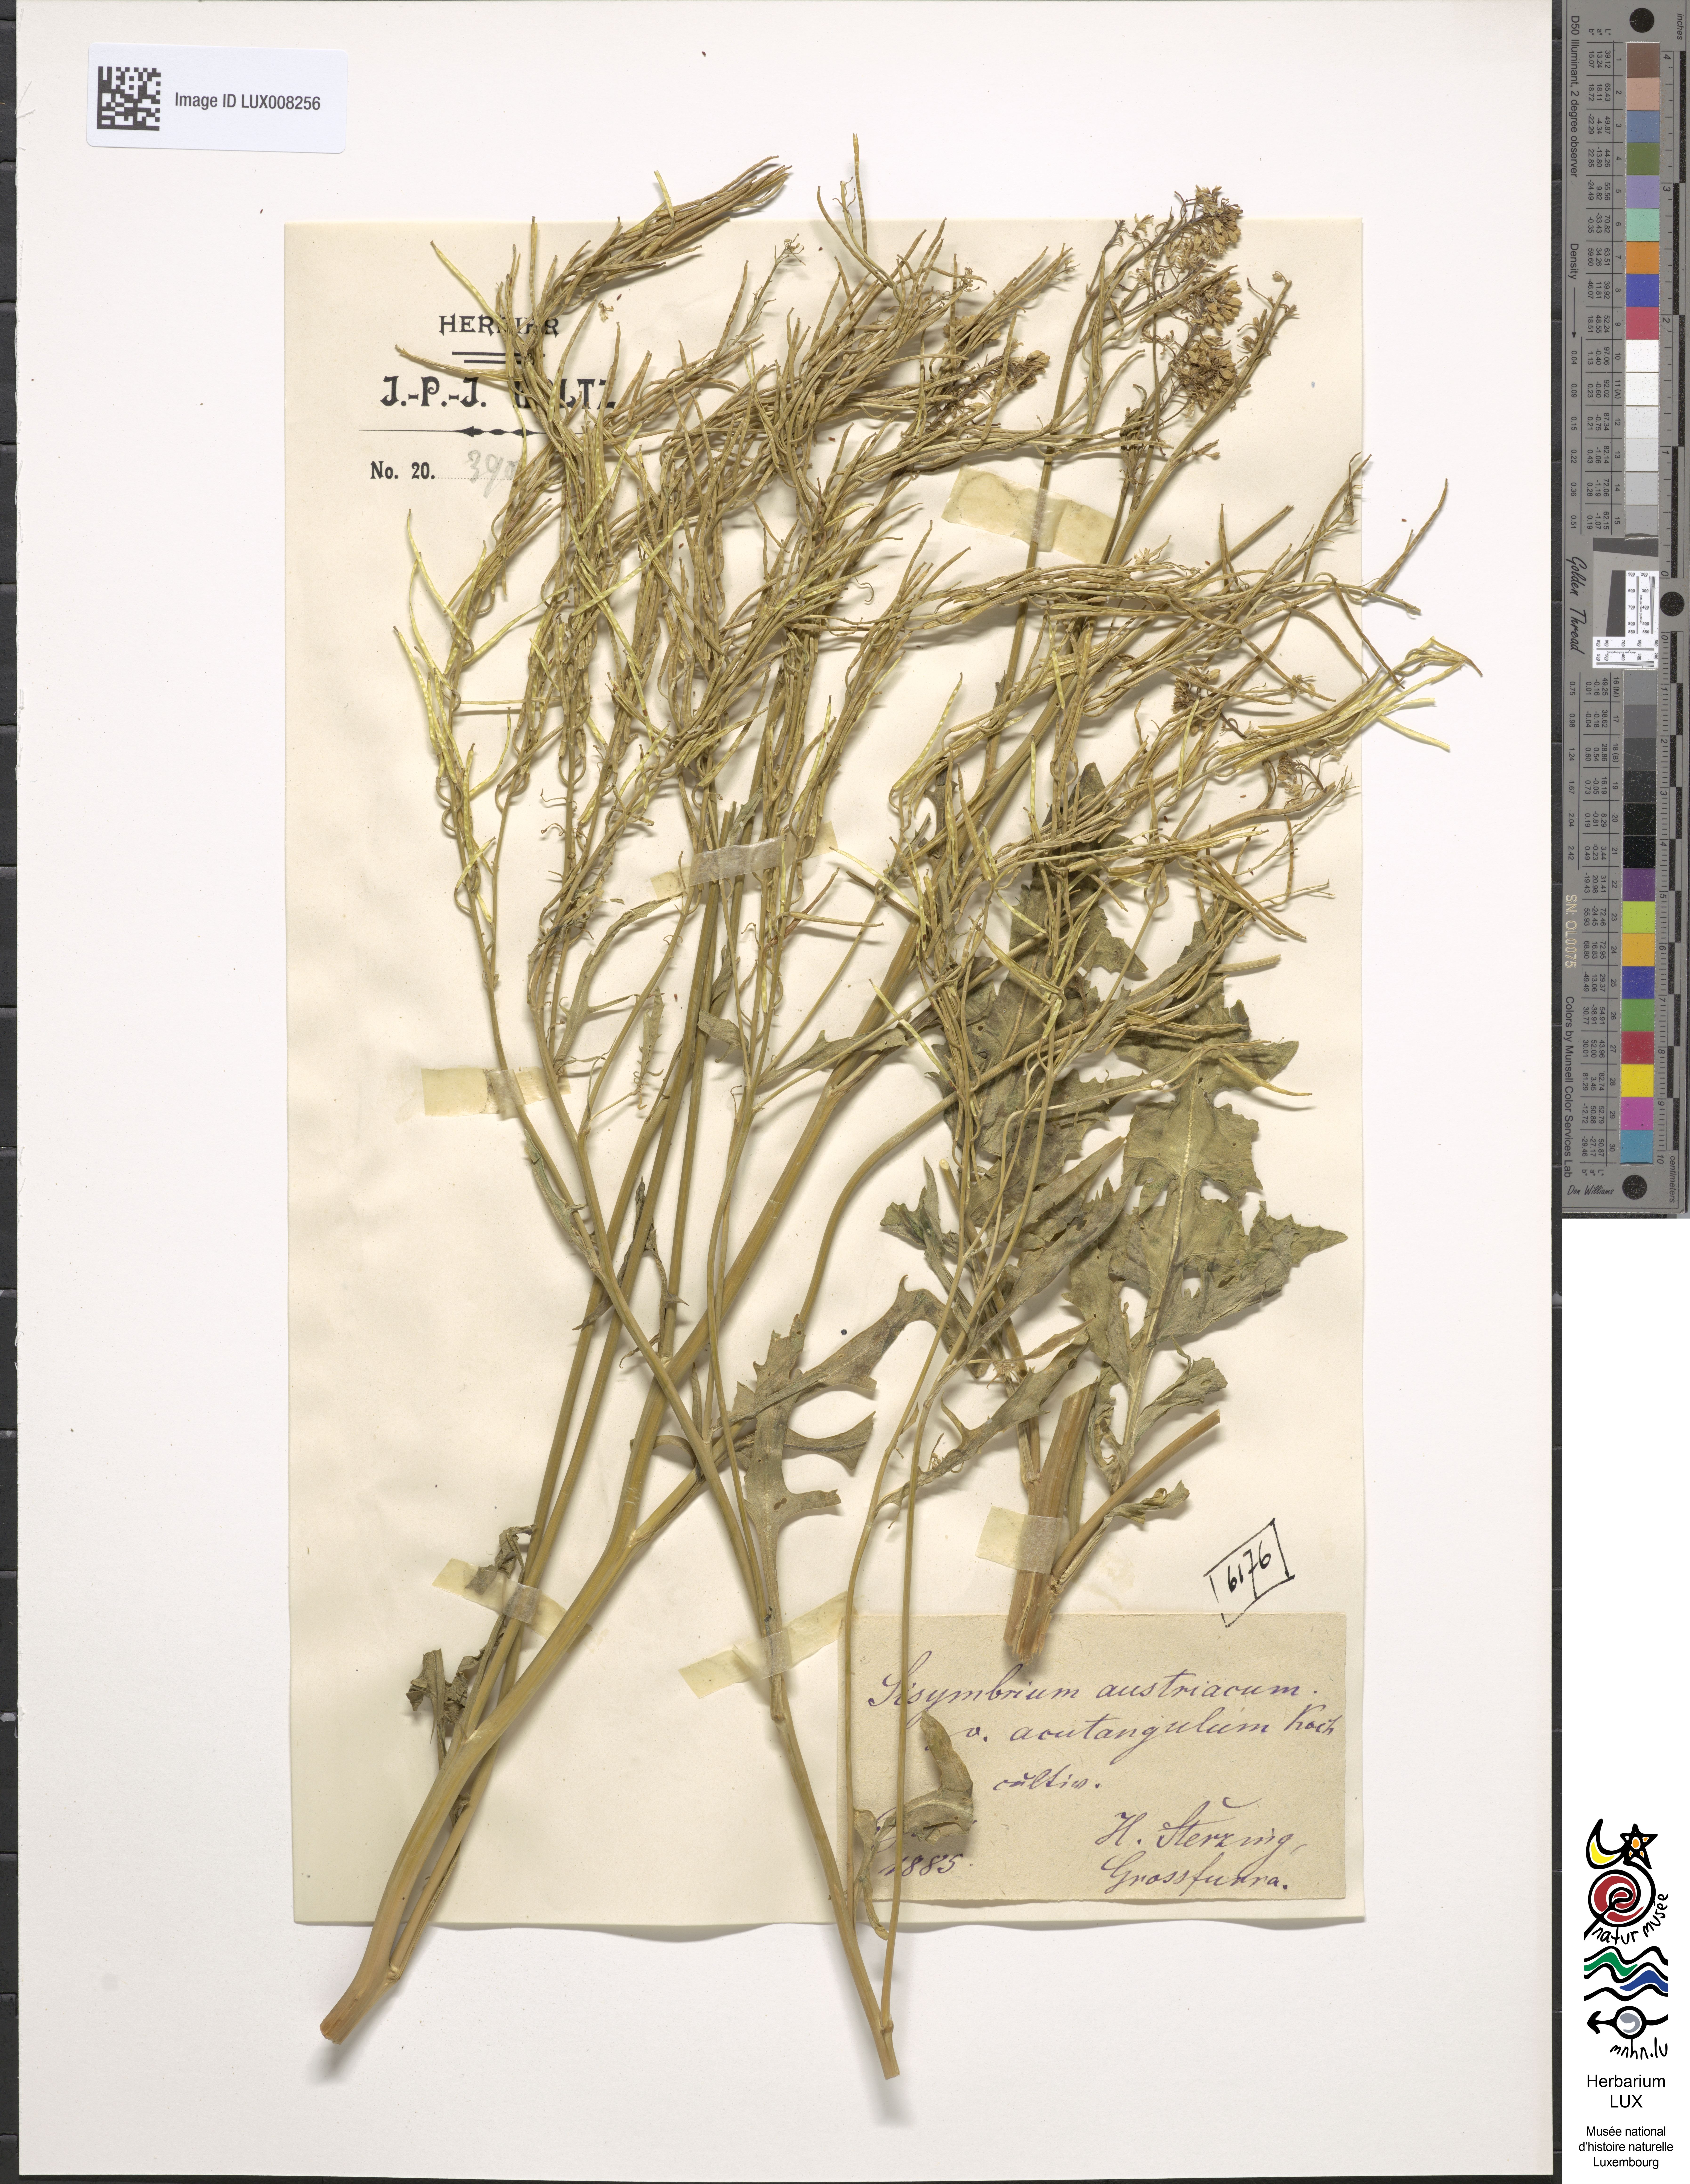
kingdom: Plantae
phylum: Tracheophyta
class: Magnoliopsida
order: Brassicales
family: Brassicaceae
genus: Sisymbrium
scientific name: Sisymbrium chrysanthum
